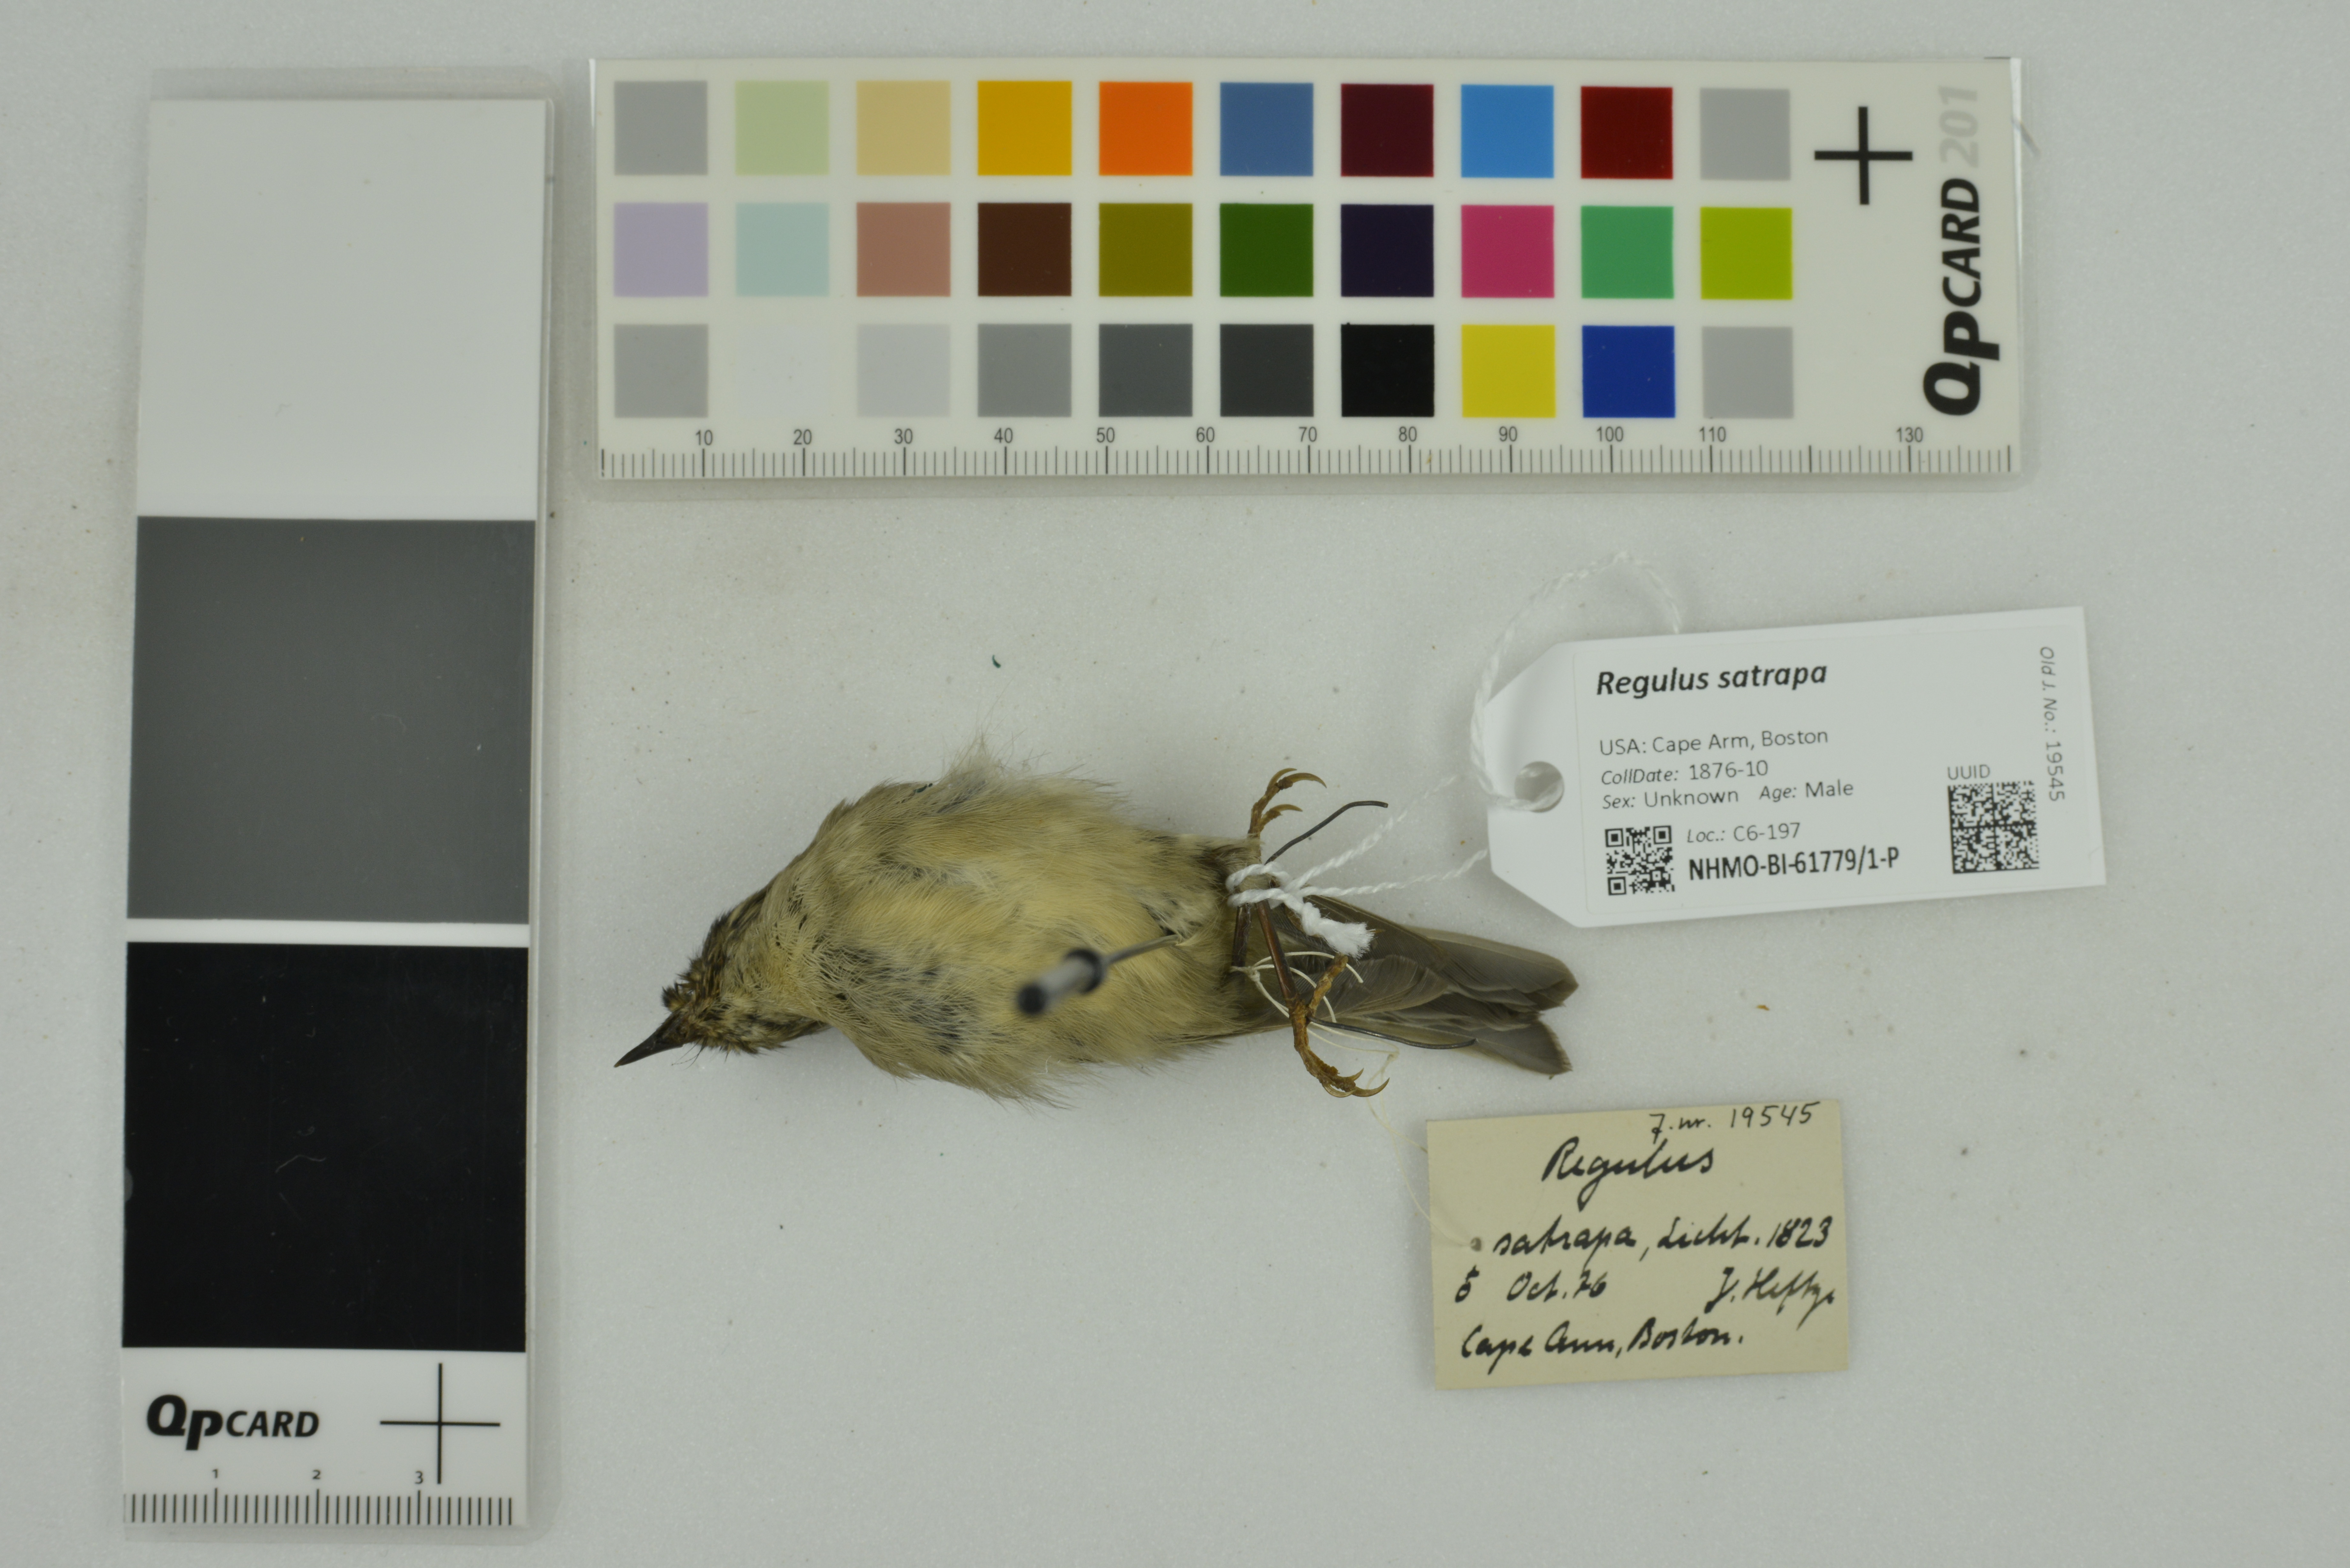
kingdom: Animalia
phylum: Chordata
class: Aves
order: Passeriformes
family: Regulidae
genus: Regulus
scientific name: Regulus satrapa
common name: Golden-crowned kinglet
